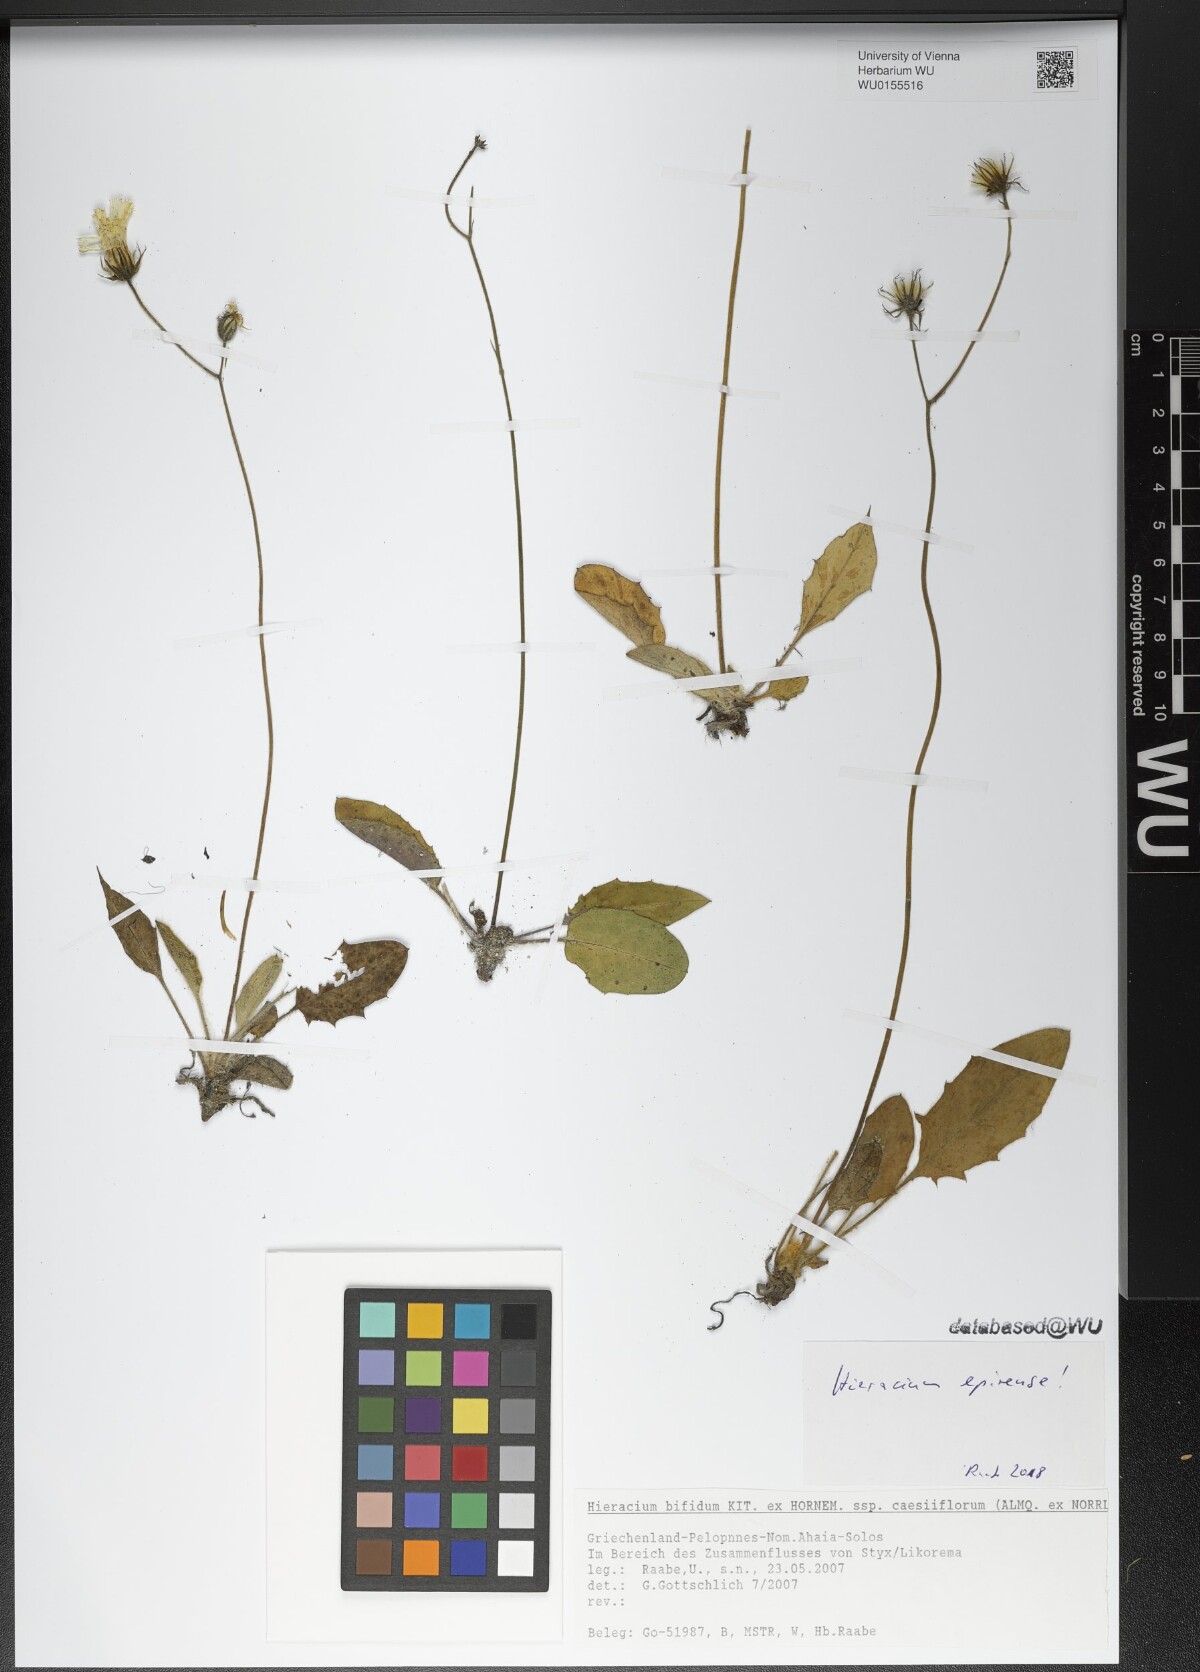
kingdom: Plantae
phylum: Tracheophyta
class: Magnoliopsida
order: Asterales
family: Asteraceae
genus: Hieracium
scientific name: Hieracium hypochoeroides
